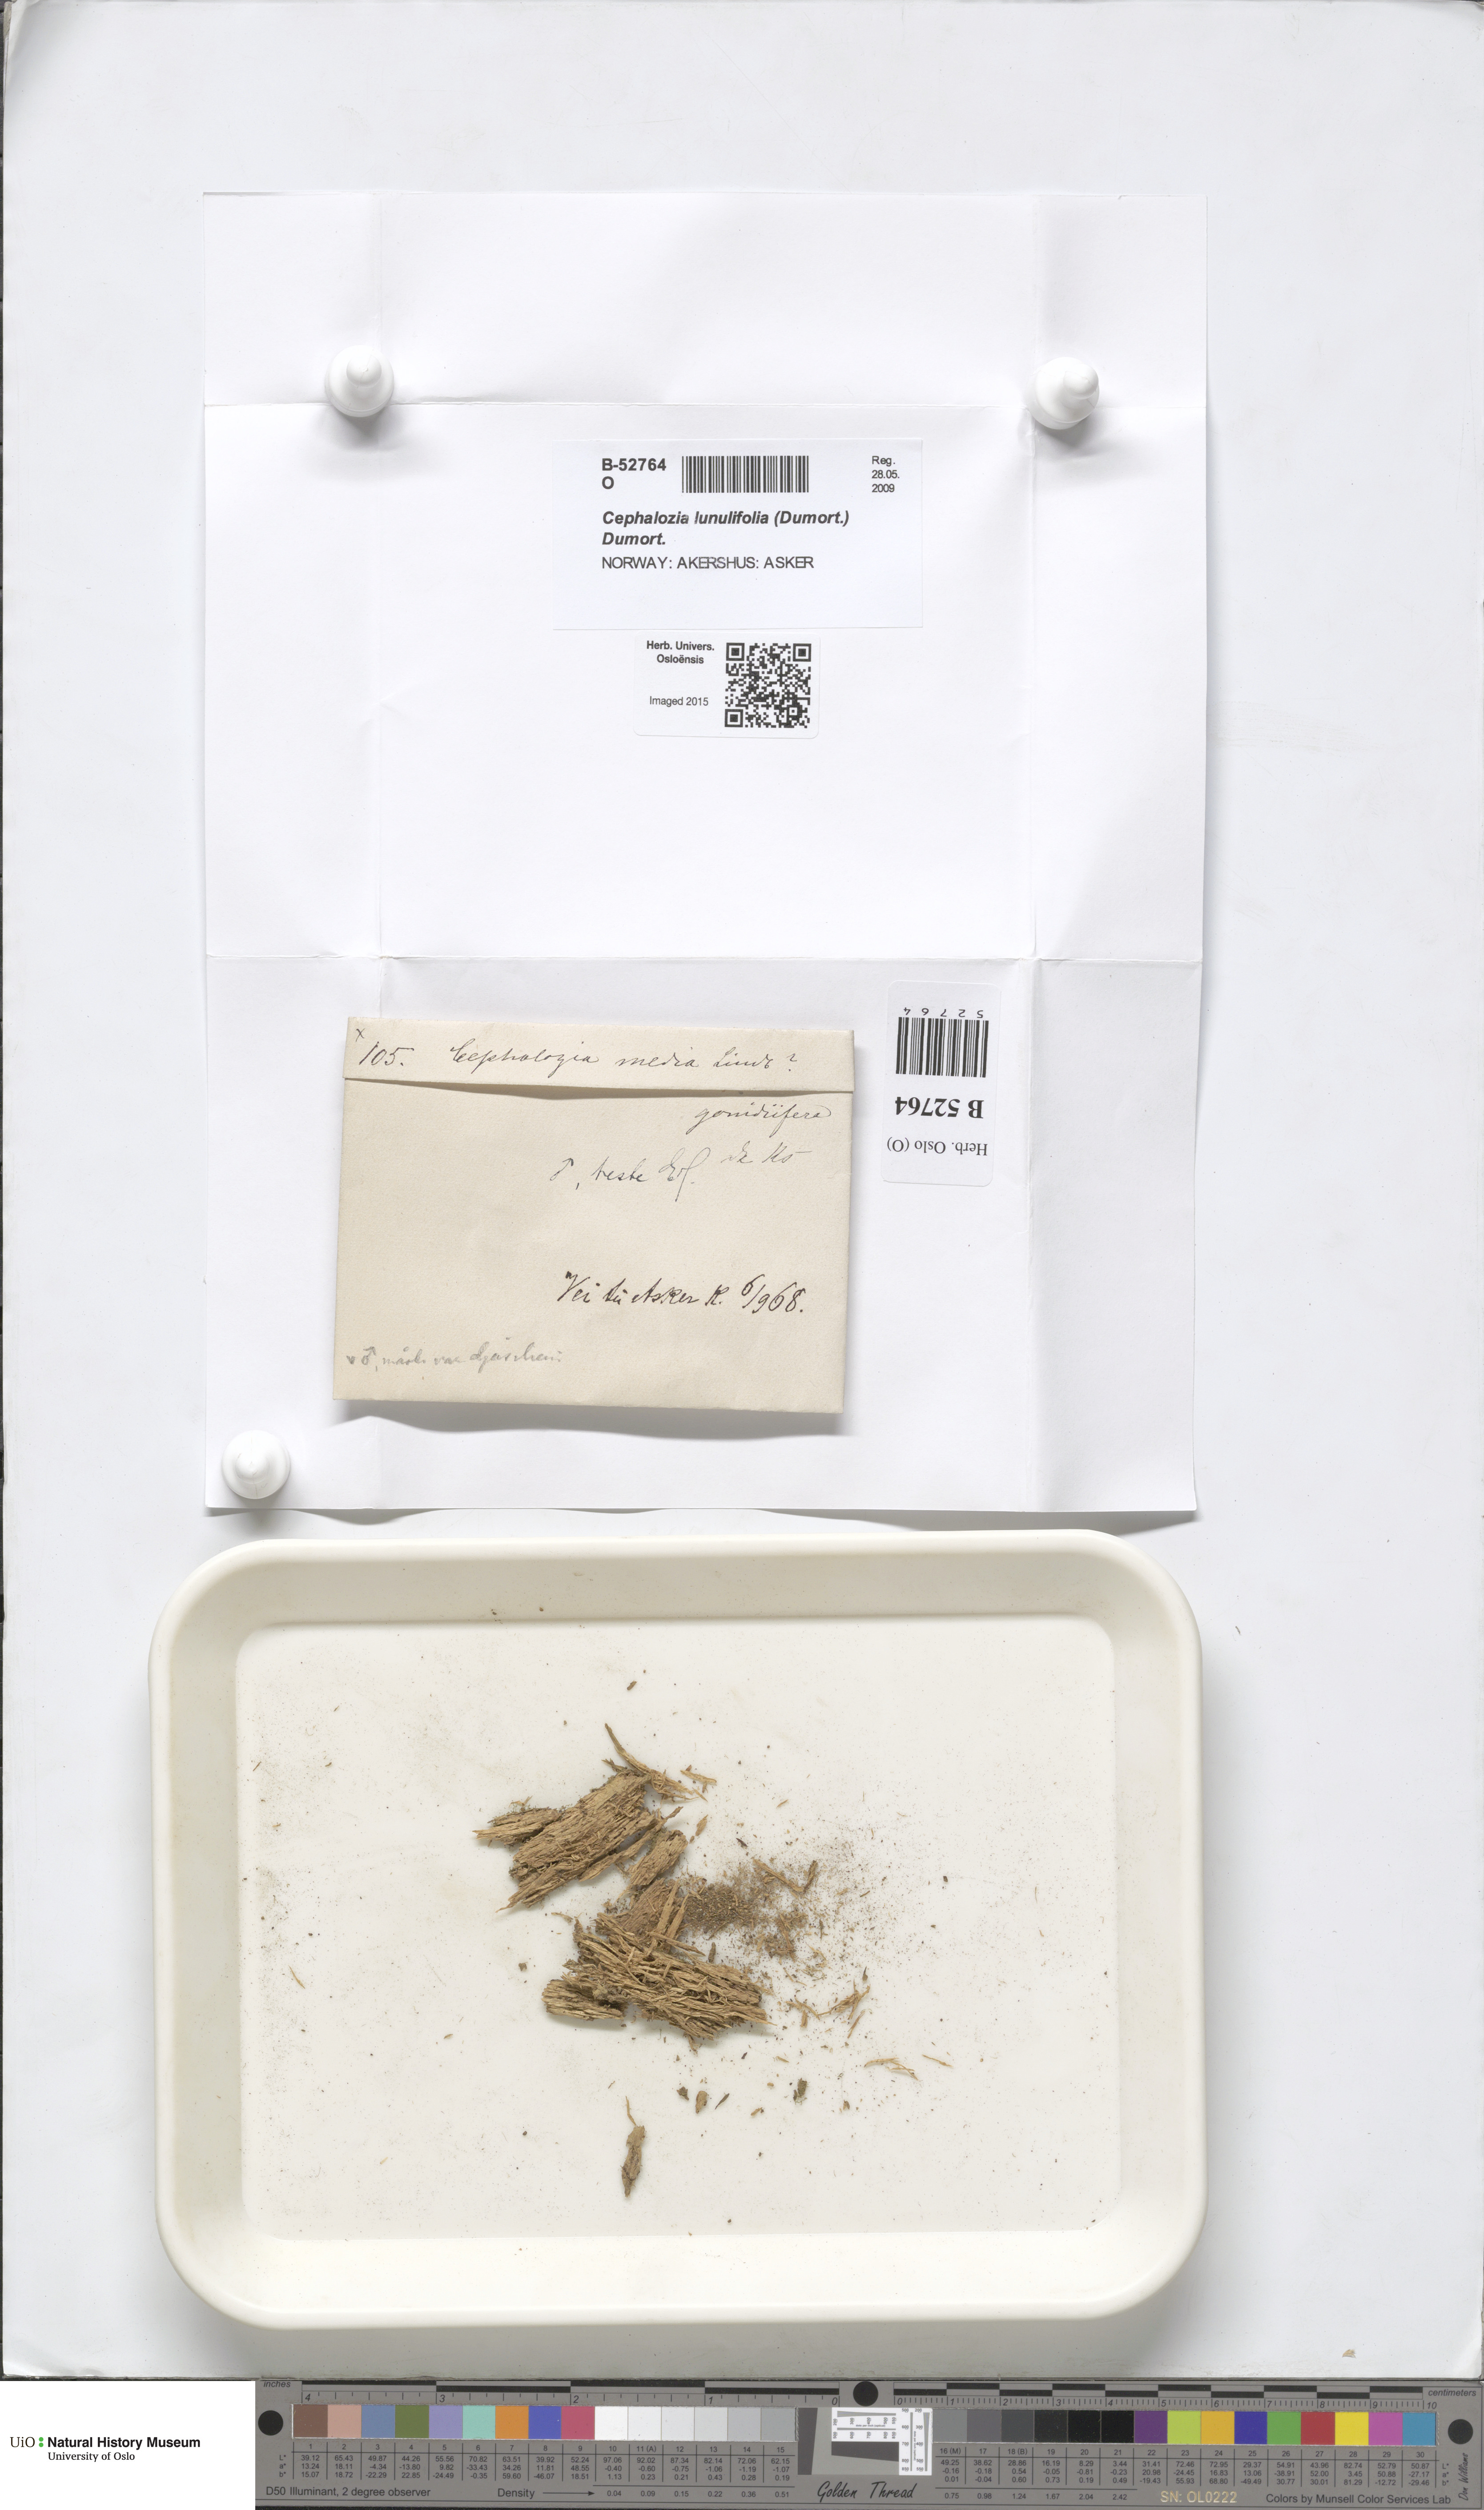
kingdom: Plantae
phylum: Marchantiophyta
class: Jungermanniopsida
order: Jungermanniales
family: Cephaloziaceae
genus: Fuscocephaloziopsis
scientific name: Fuscocephaloziopsis lunulifolia
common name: Moon-leaved pincerwort
